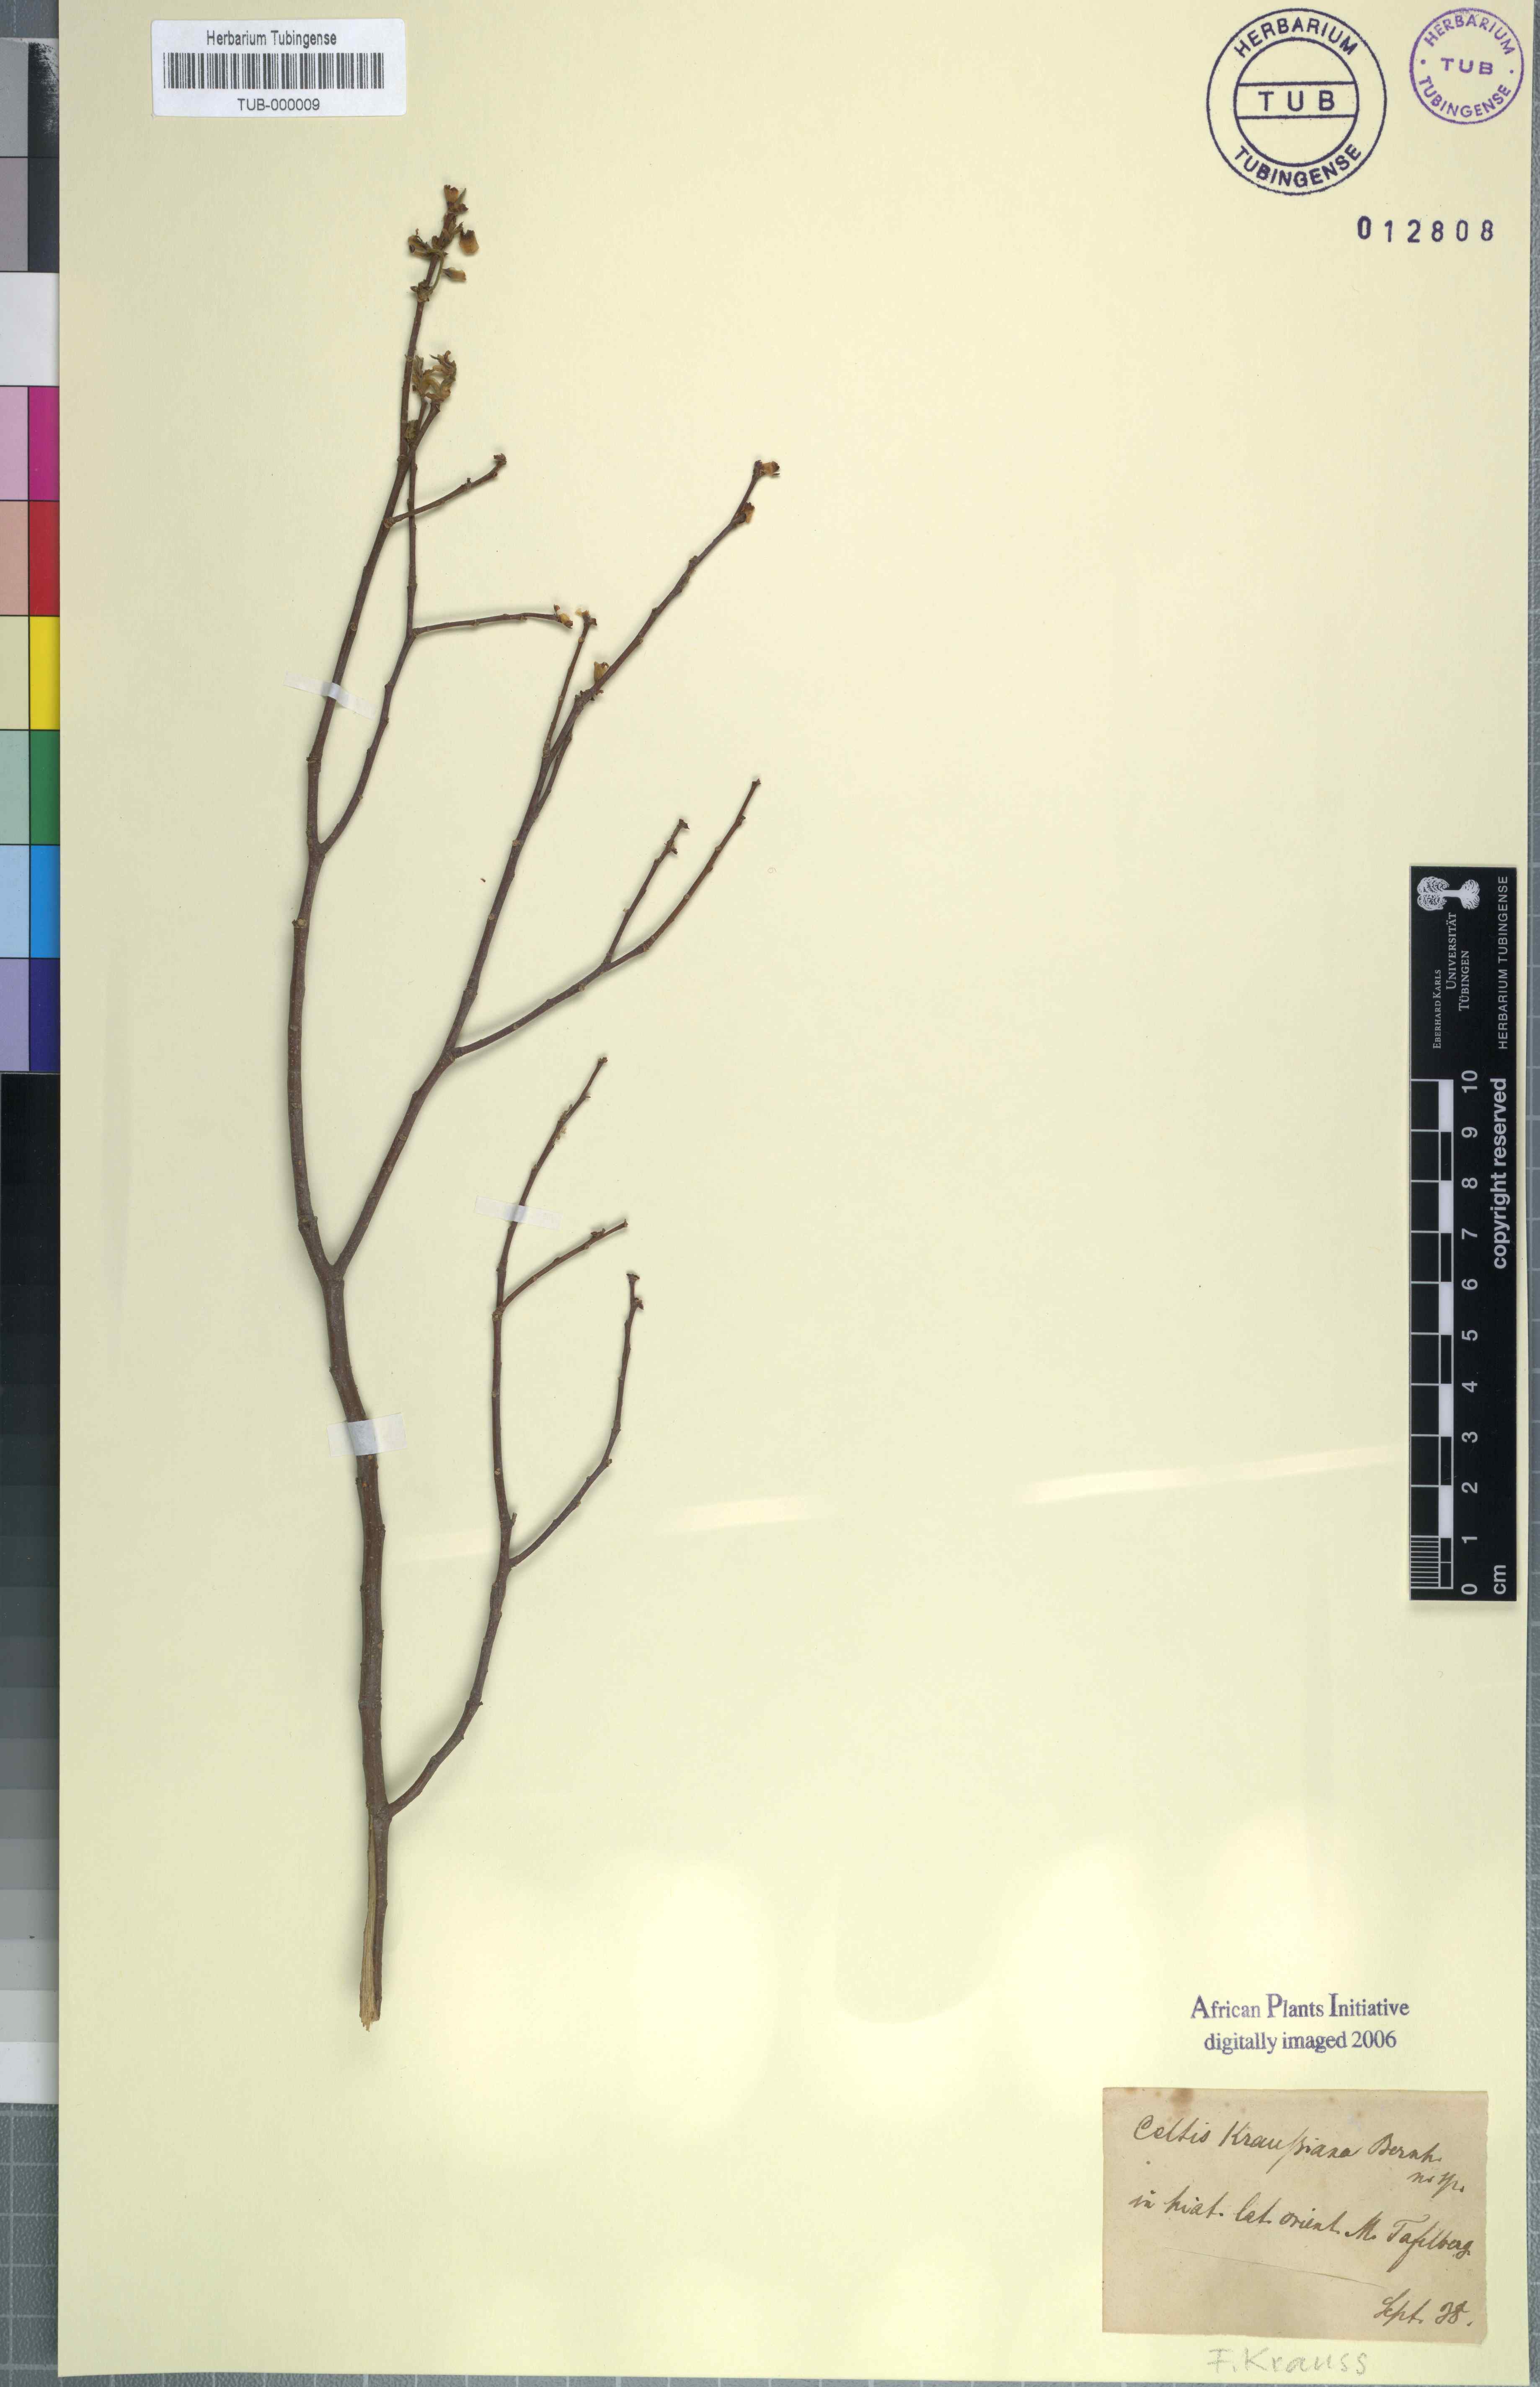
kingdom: Plantae
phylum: Tracheophyta
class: Magnoliopsida
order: Rosales
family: Cannabaceae
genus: Celtis
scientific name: Celtis africana
